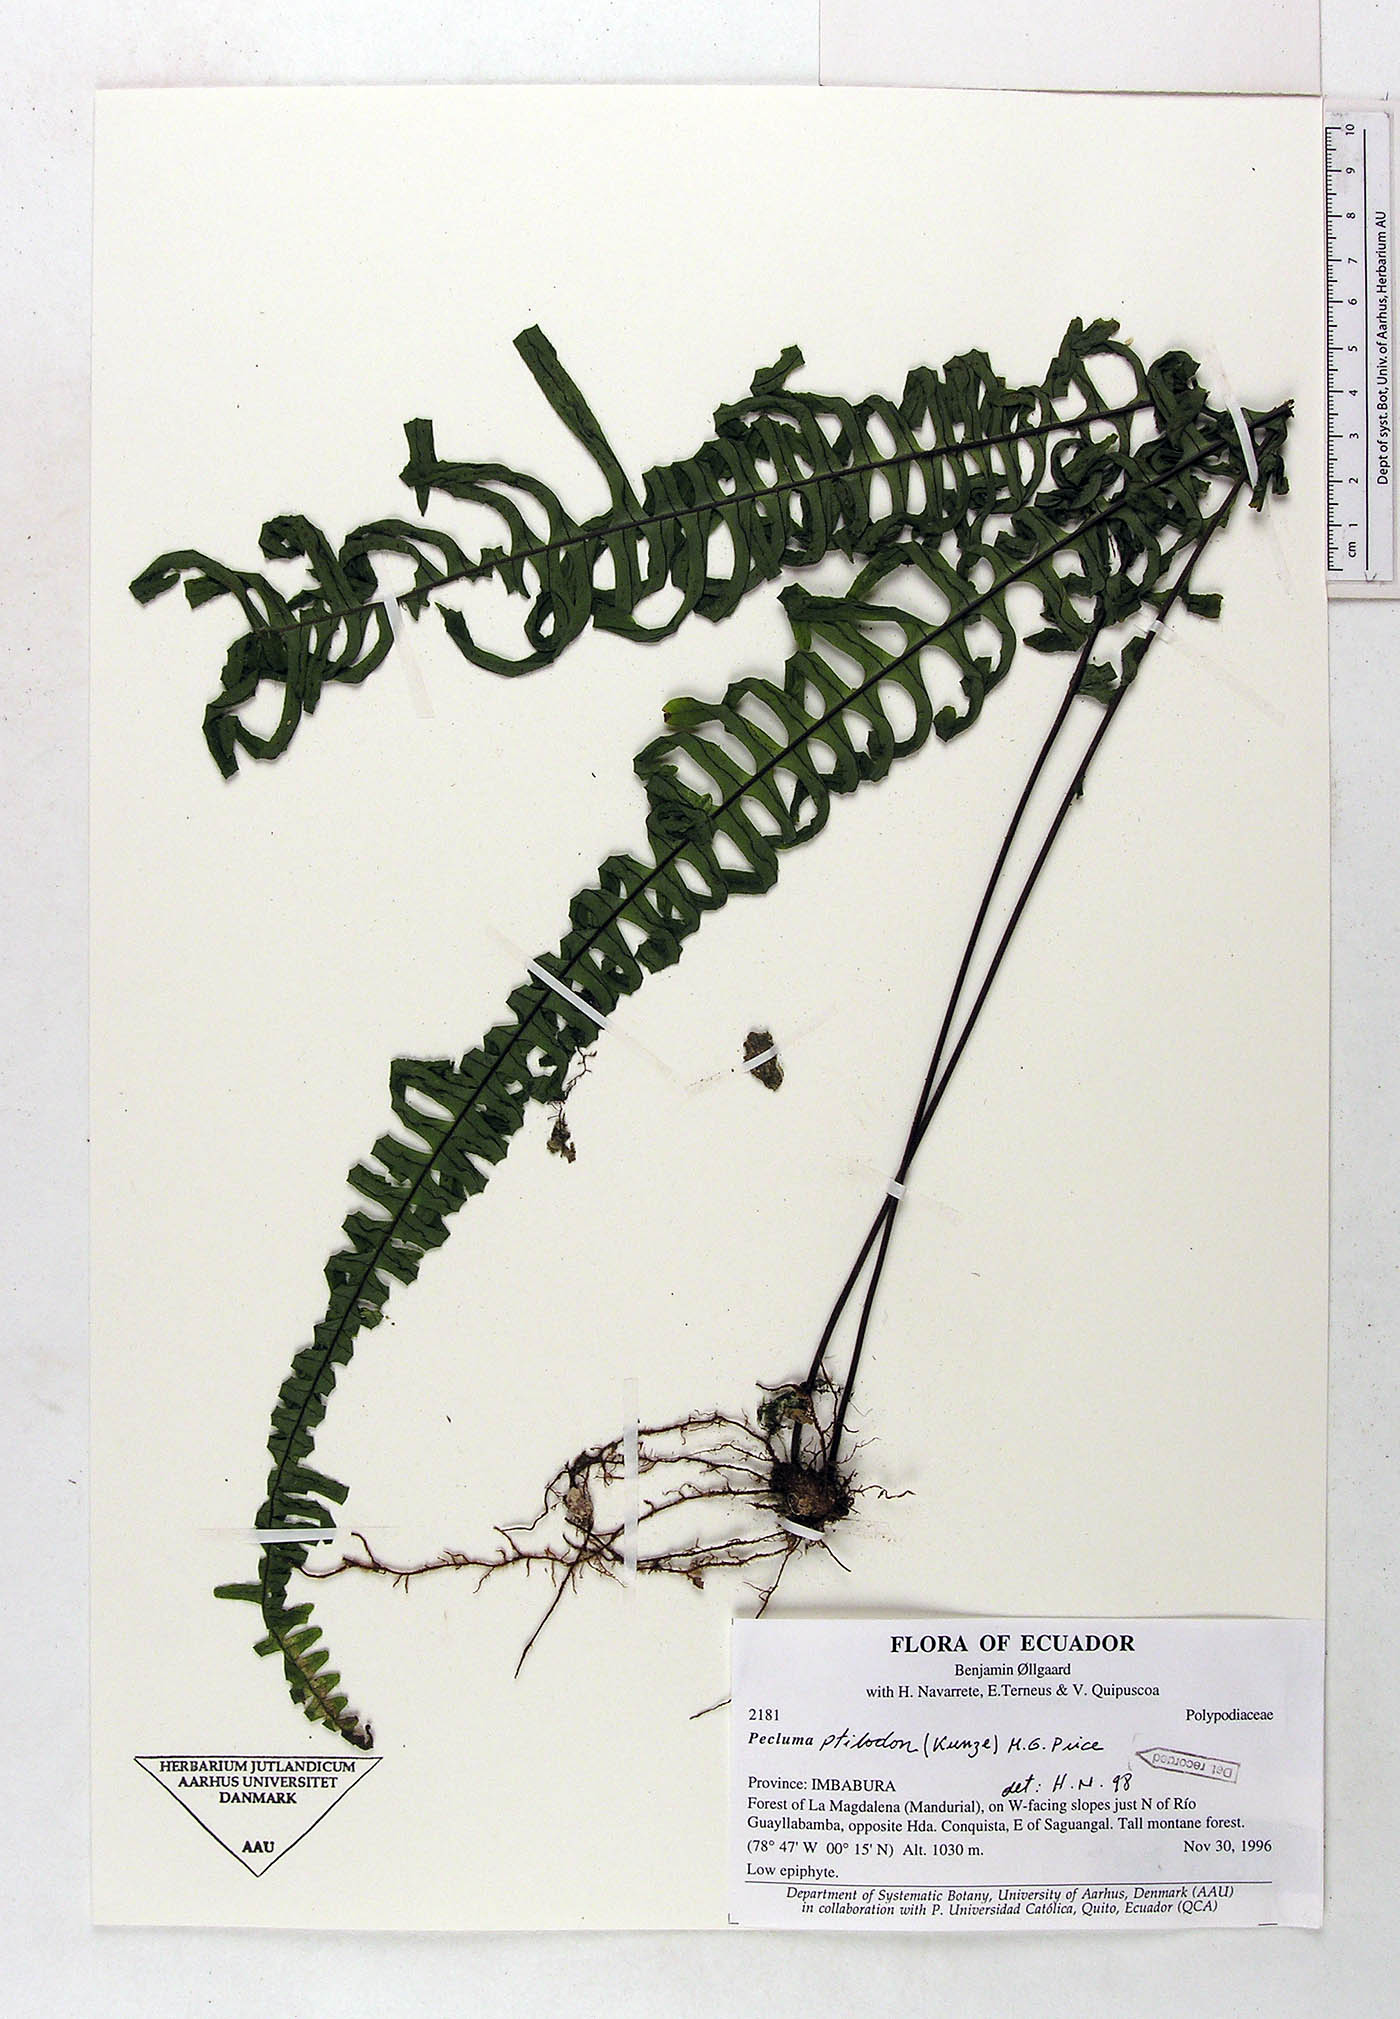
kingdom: Plantae
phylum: Tracheophyta
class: Polypodiopsida
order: Polypodiales
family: Polypodiaceae
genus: Pecluma
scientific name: Pecluma ptilotos
